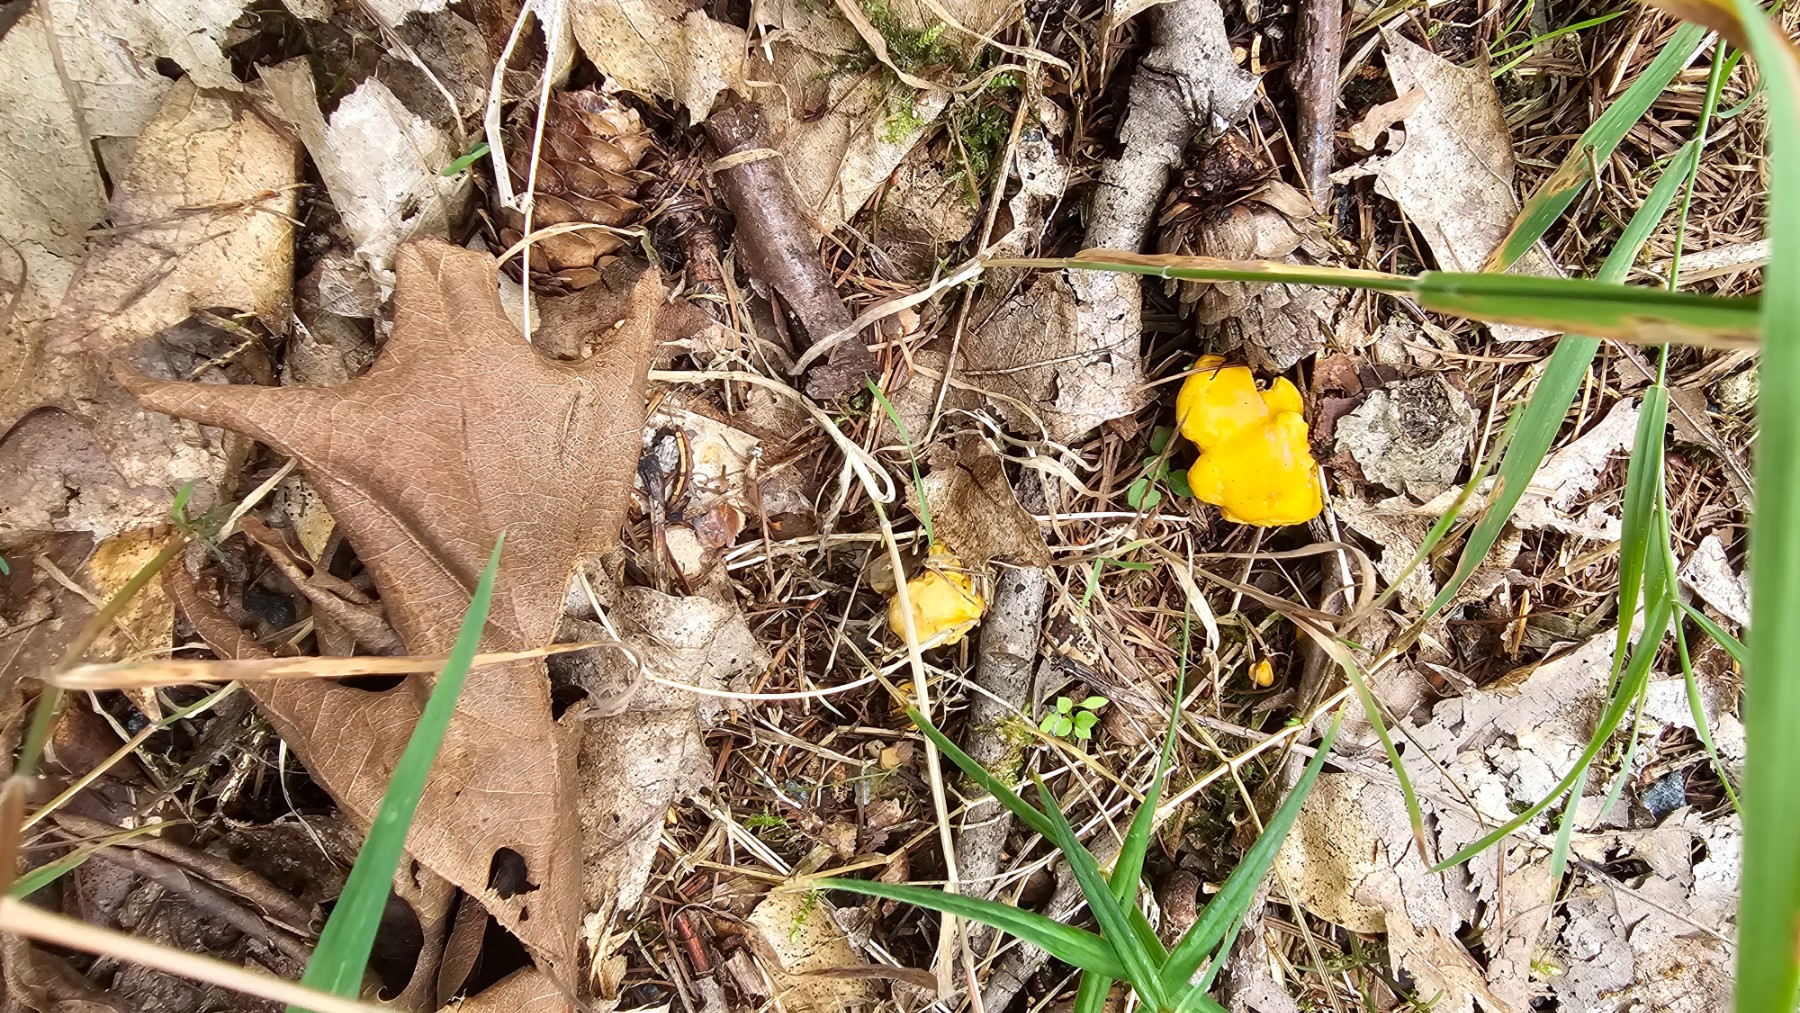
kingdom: Fungi
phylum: Basidiomycota
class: Agaricomycetes
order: Cantharellales
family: Hydnaceae
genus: Cantharellus
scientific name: Cantharellus cibarius
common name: almindelig kantarel
